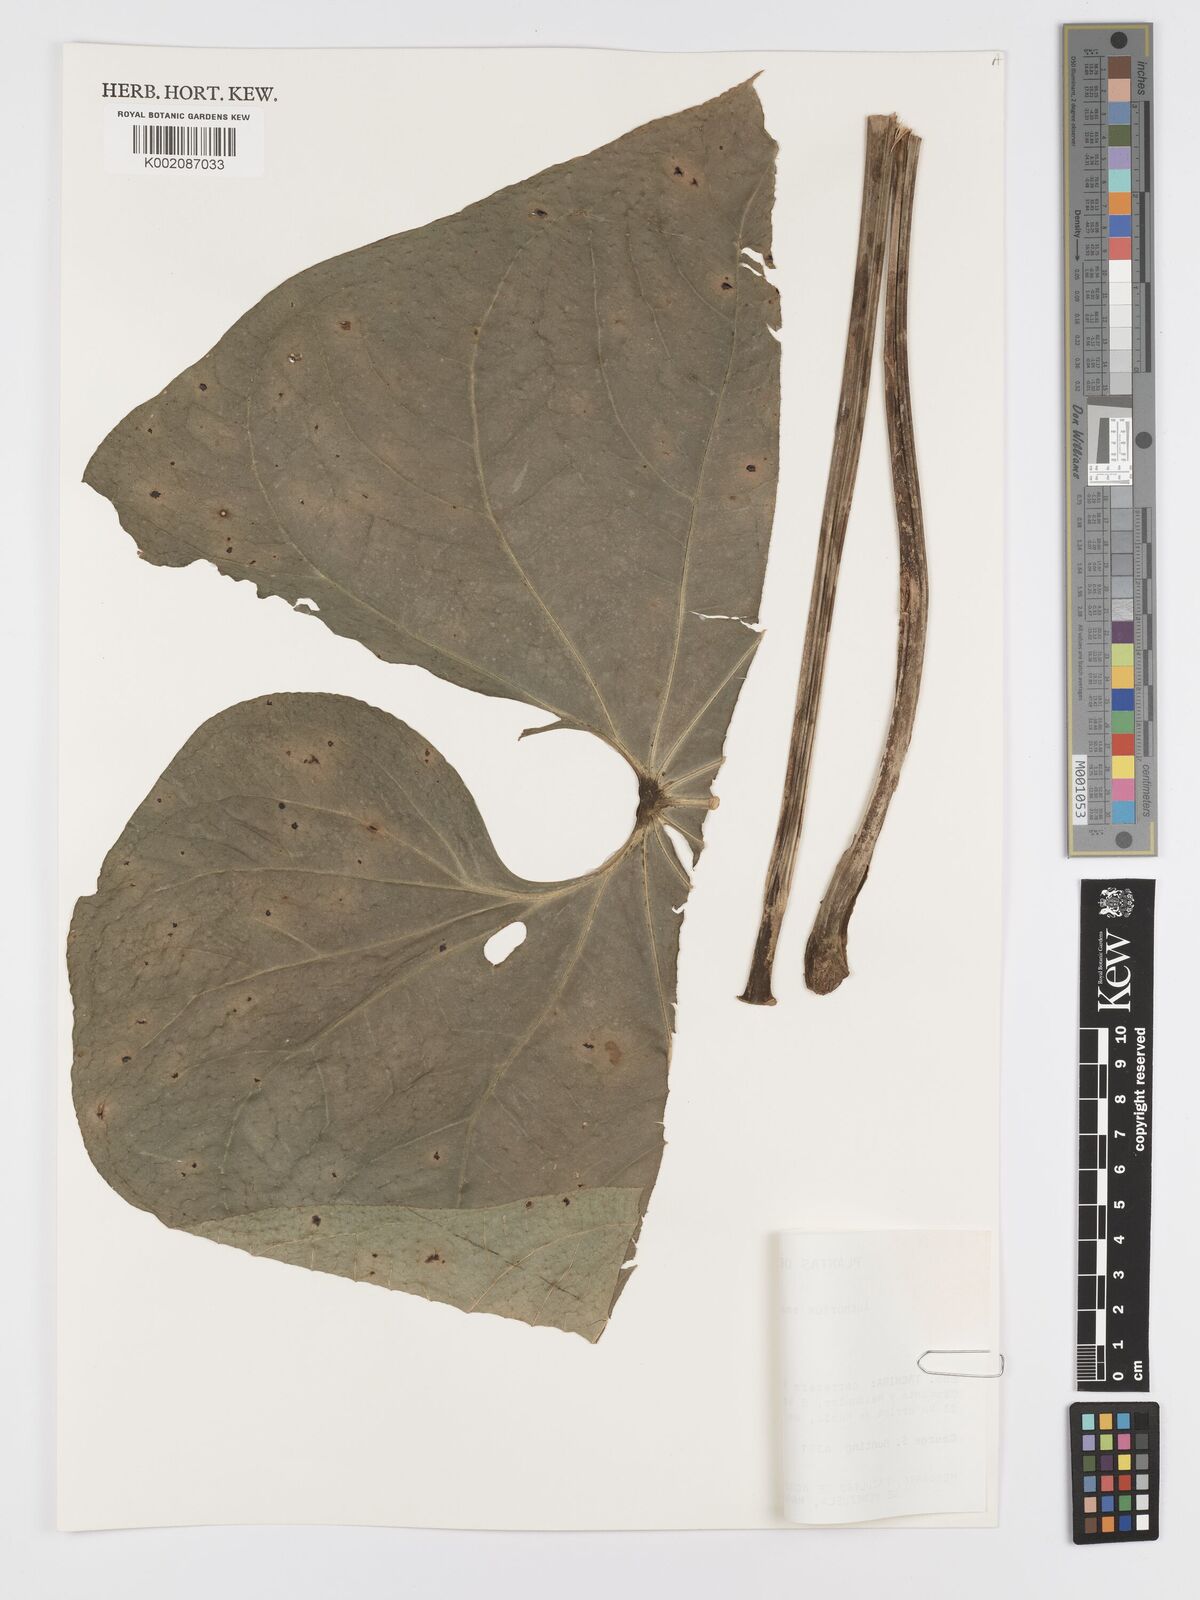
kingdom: Plantae
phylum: Tracheophyta
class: Liliopsida
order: Alismatales
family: Araceae
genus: Anthurium
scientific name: Anthurium smaragdinum
